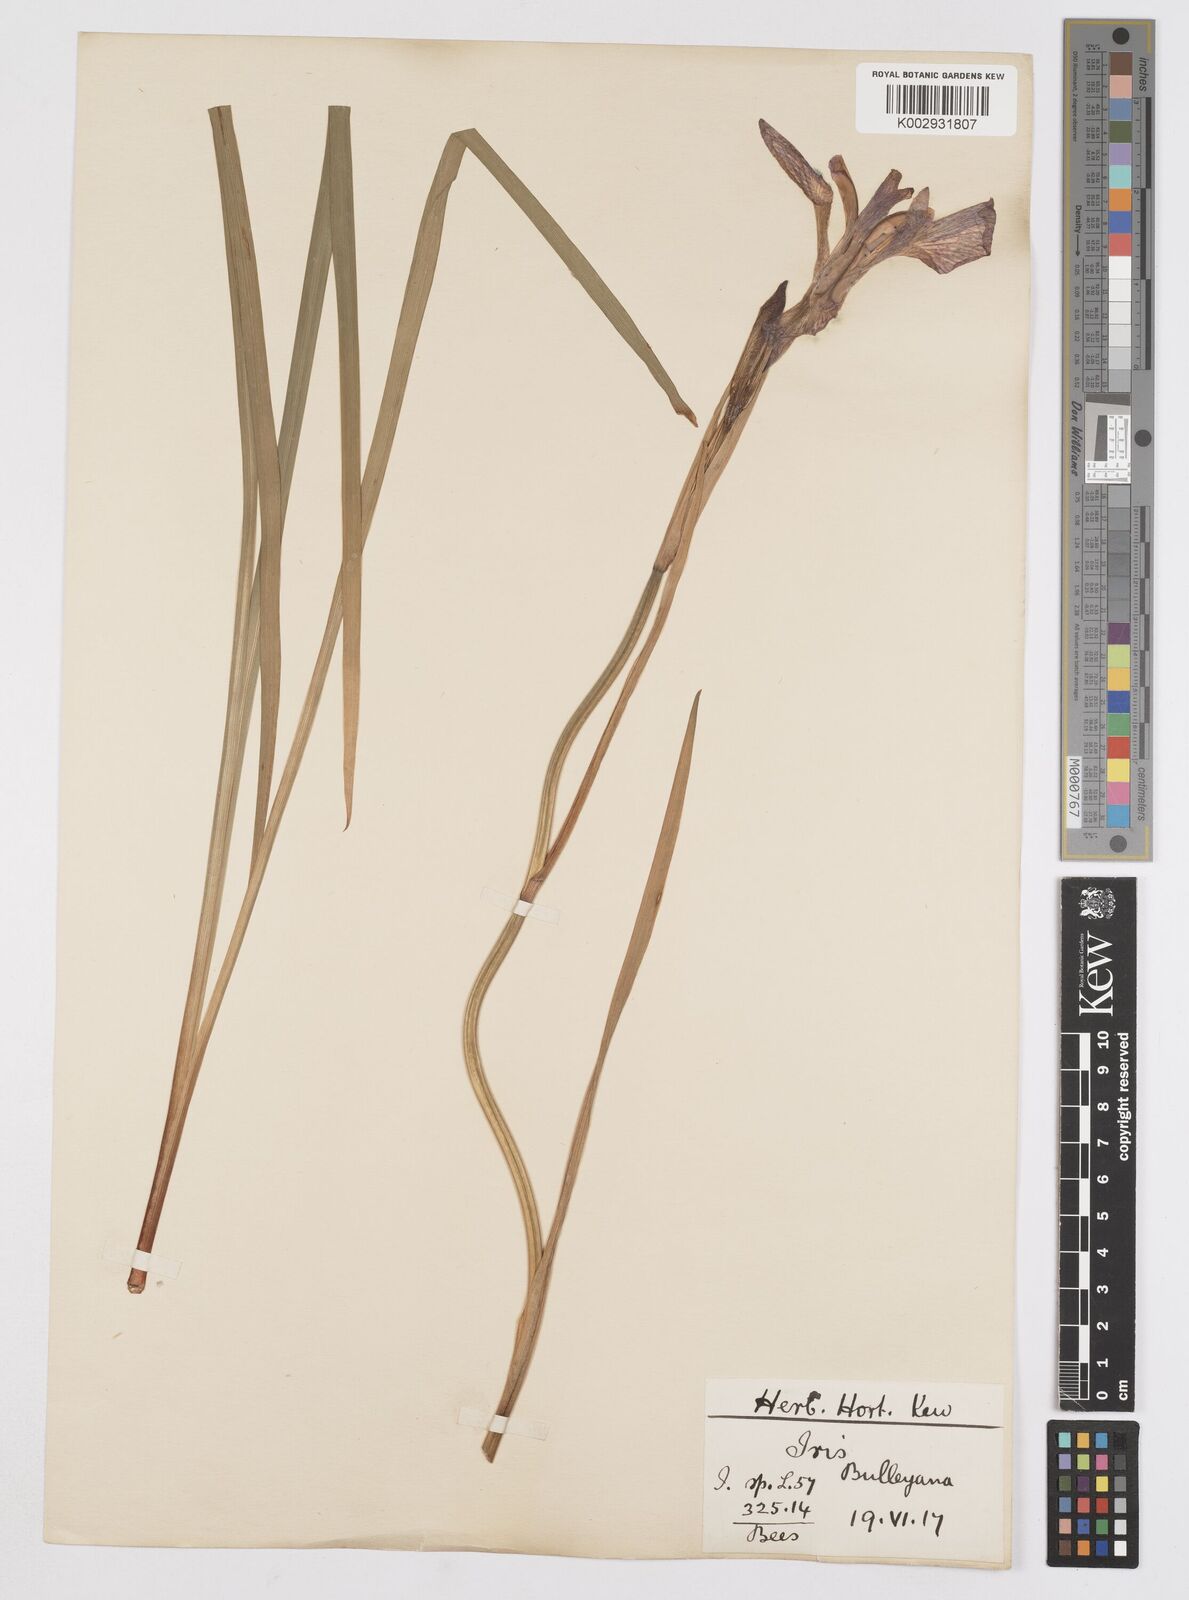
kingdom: Plantae
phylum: Tracheophyta
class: Liliopsida
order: Asparagales
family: Iridaceae
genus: Iris
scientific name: Iris clarkei
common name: Tibet iris
